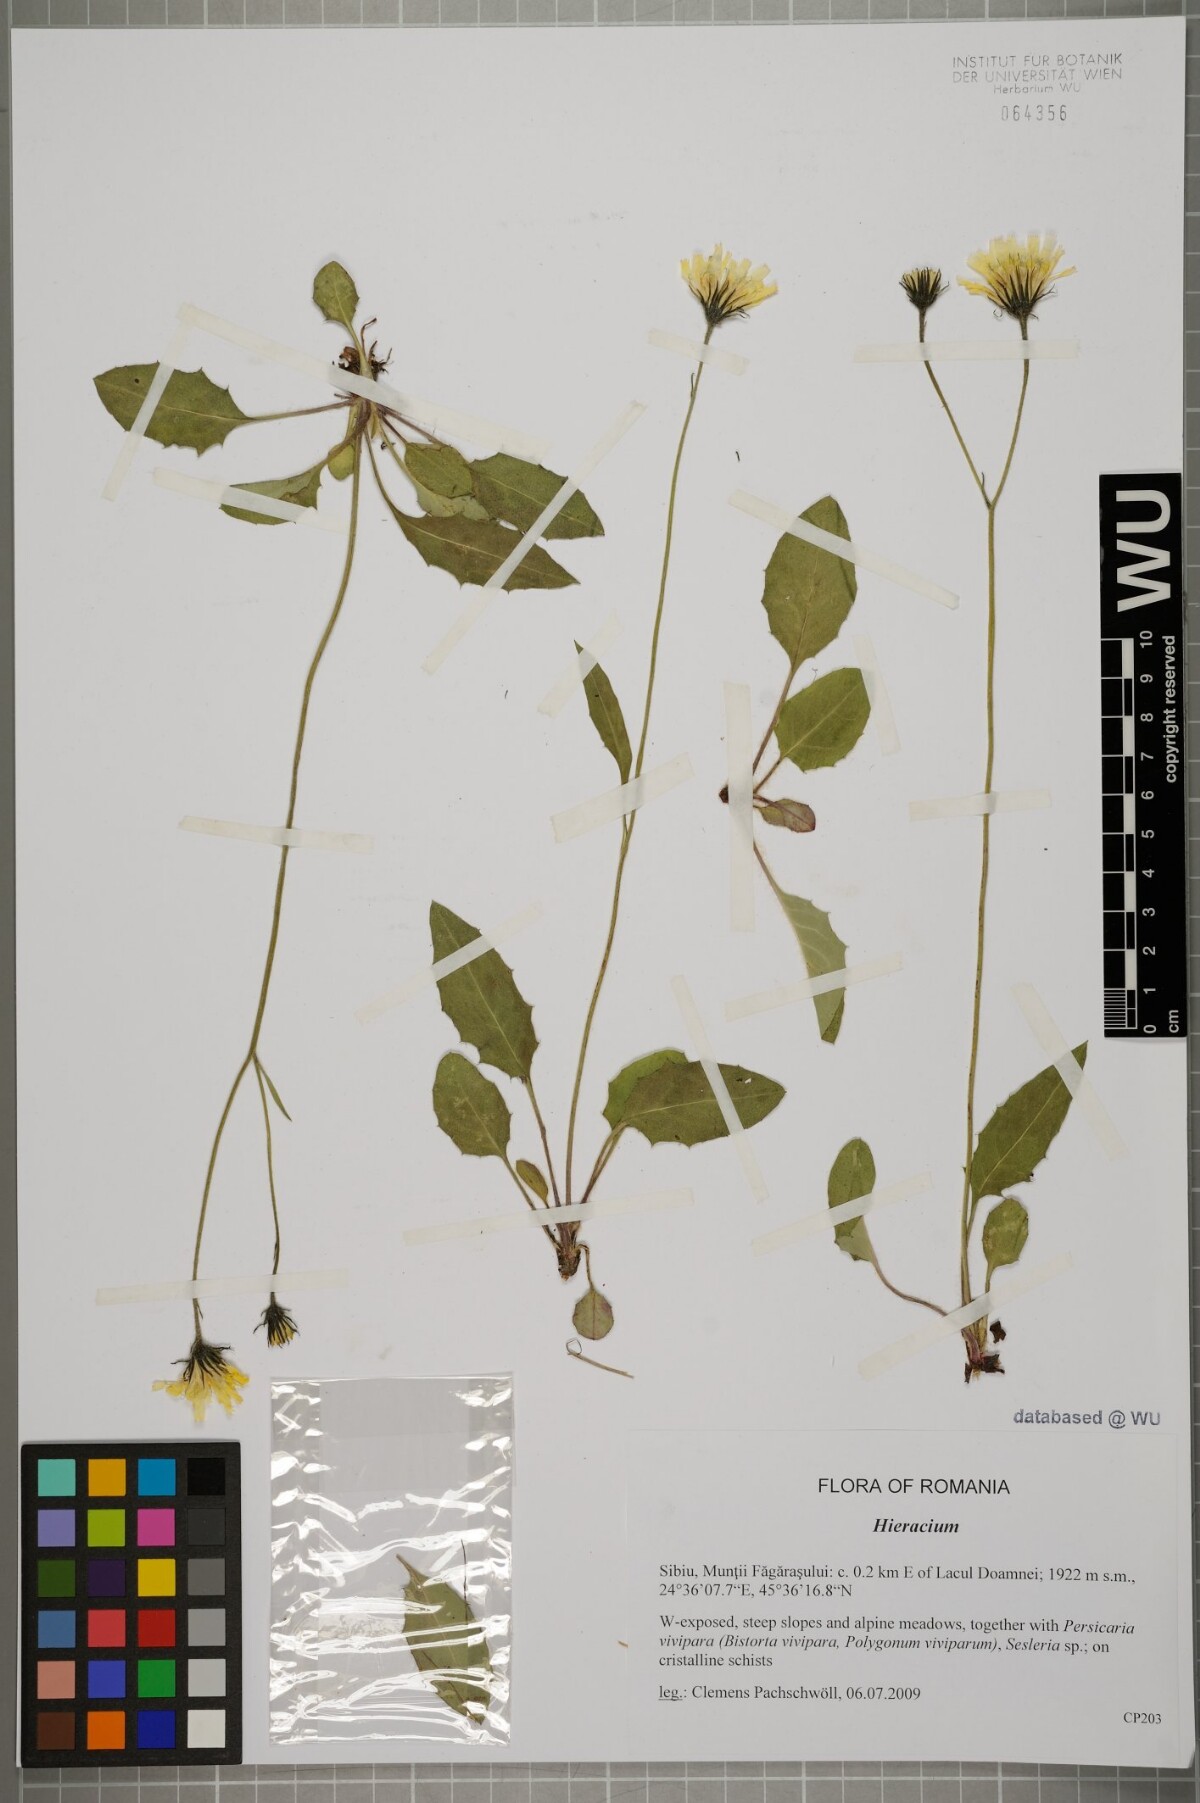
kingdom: Plantae
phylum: Tracheophyta
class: Magnoliopsida
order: Asterales
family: Asteraceae
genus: Hieracium
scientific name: Hieracium
